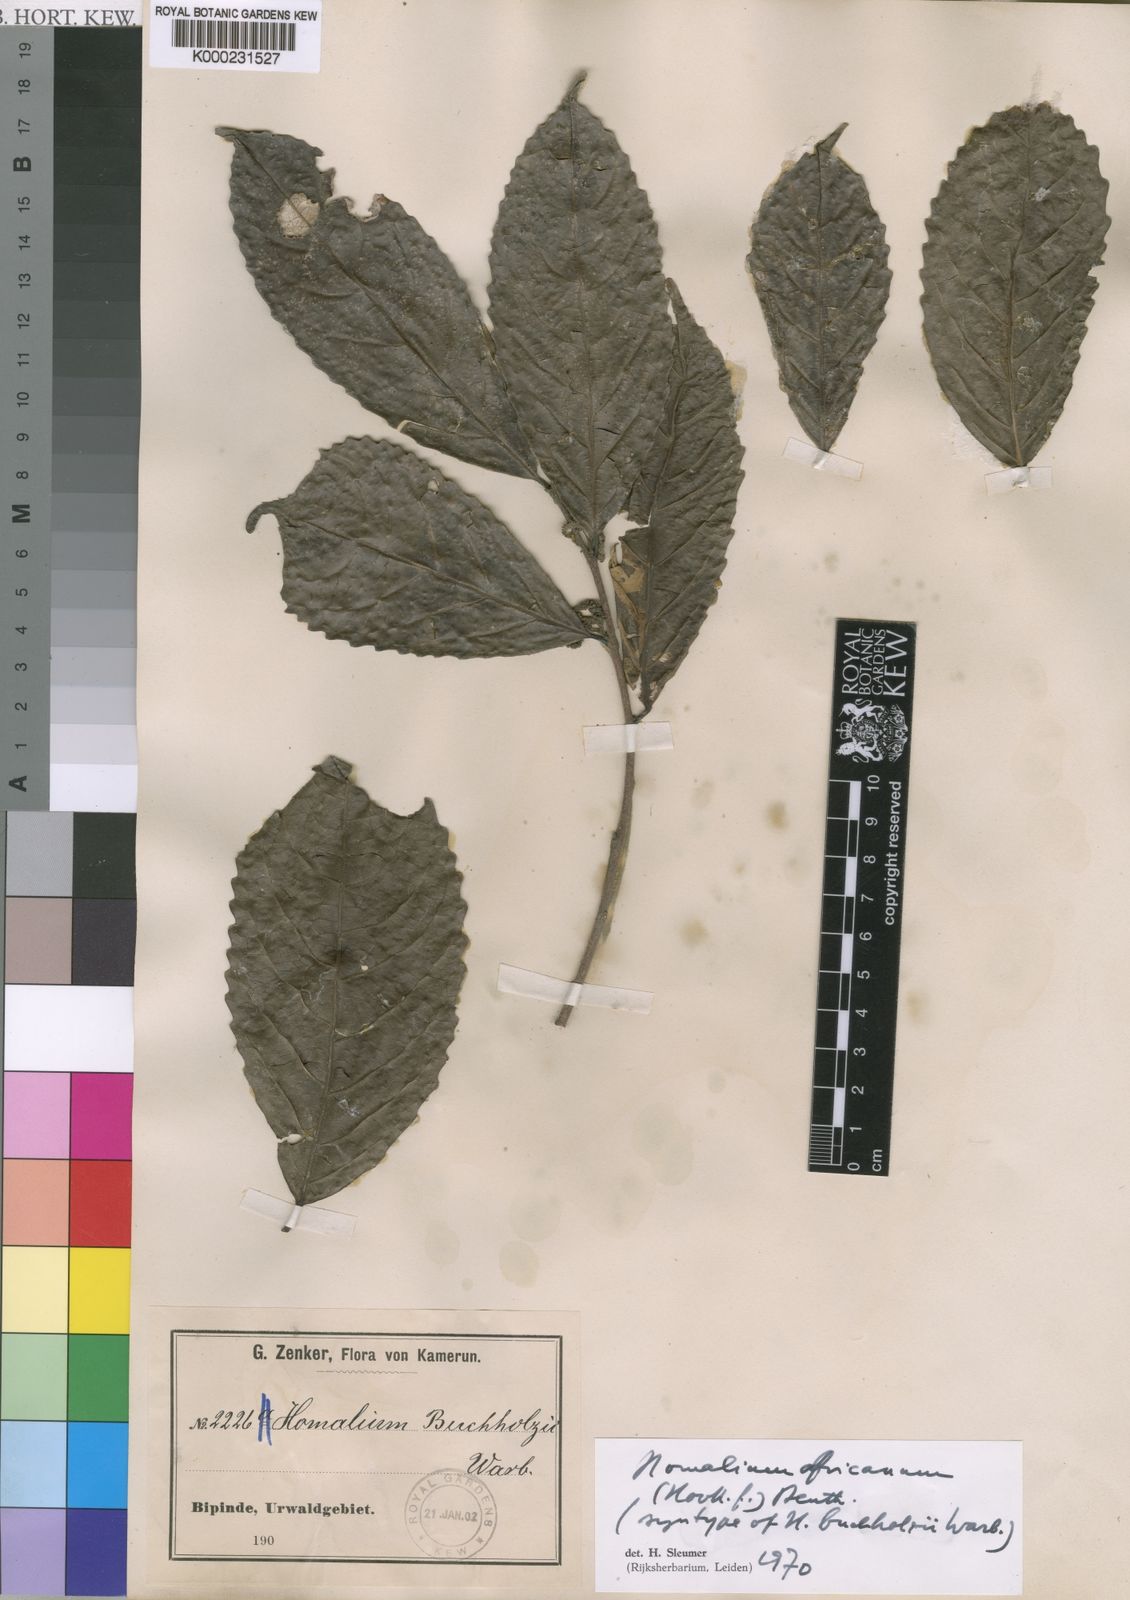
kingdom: Plantae
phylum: Tracheophyta
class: Magnoliopsida
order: Malpighiales
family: Salicaceae
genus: Homalium
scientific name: Homalium africanum
